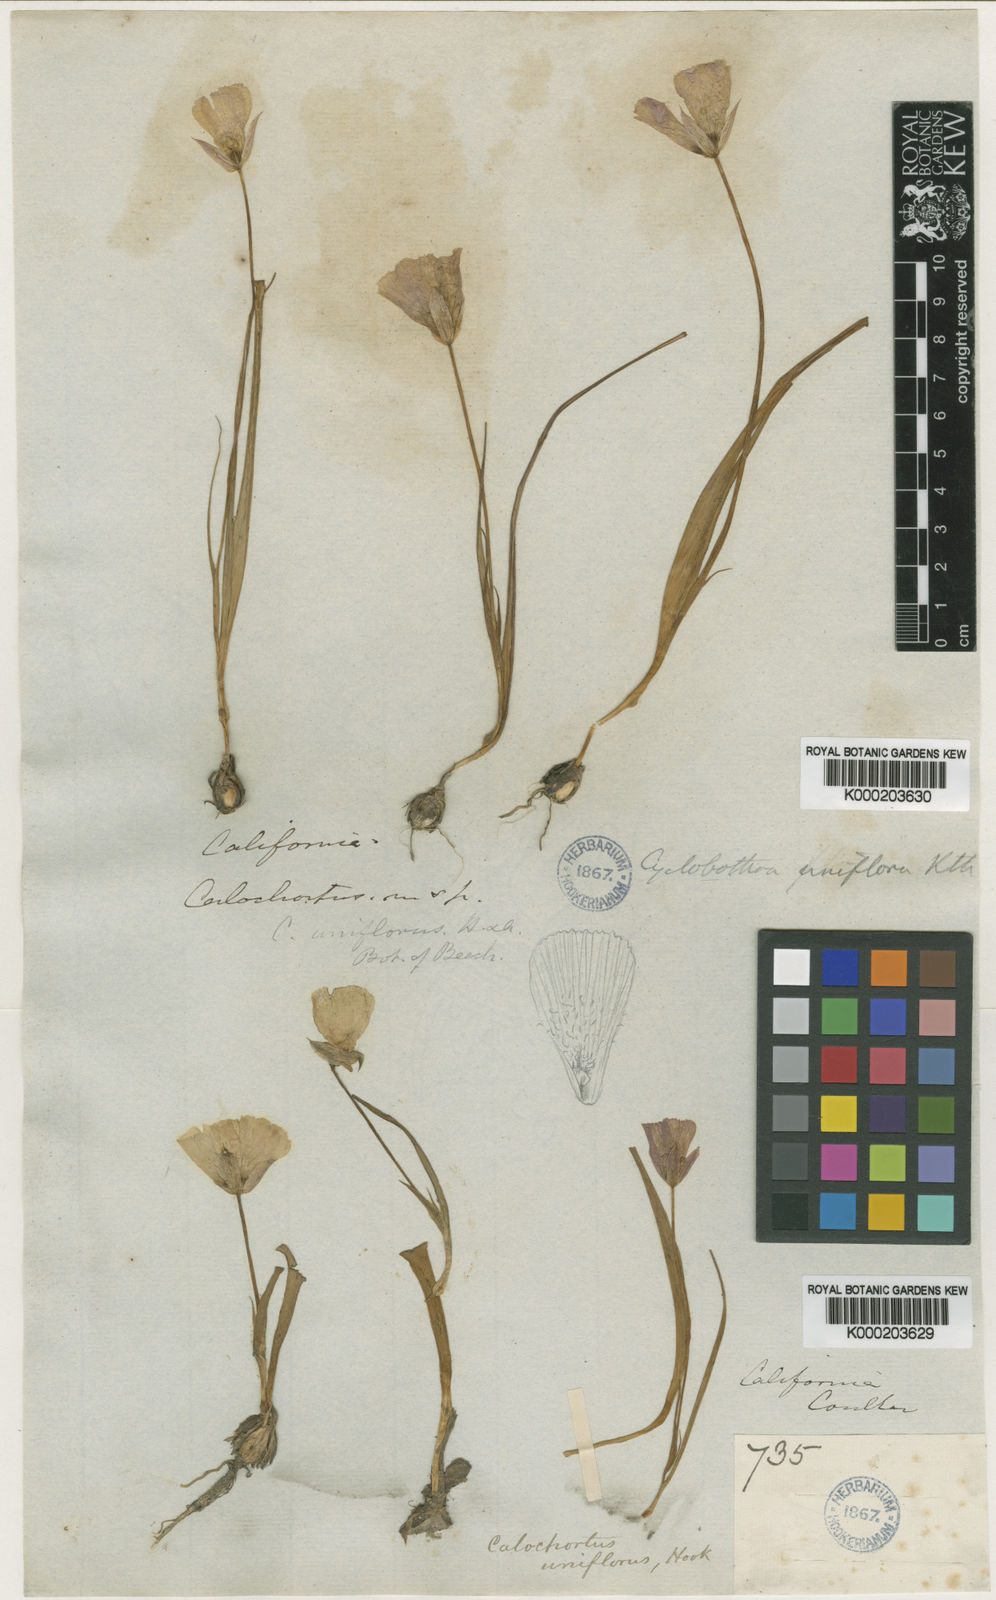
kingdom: Plantae
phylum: Tracheophyta
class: Liliopsida
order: Liliales
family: Liliaceae
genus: Calochortus
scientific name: Calochortus uniflorus
